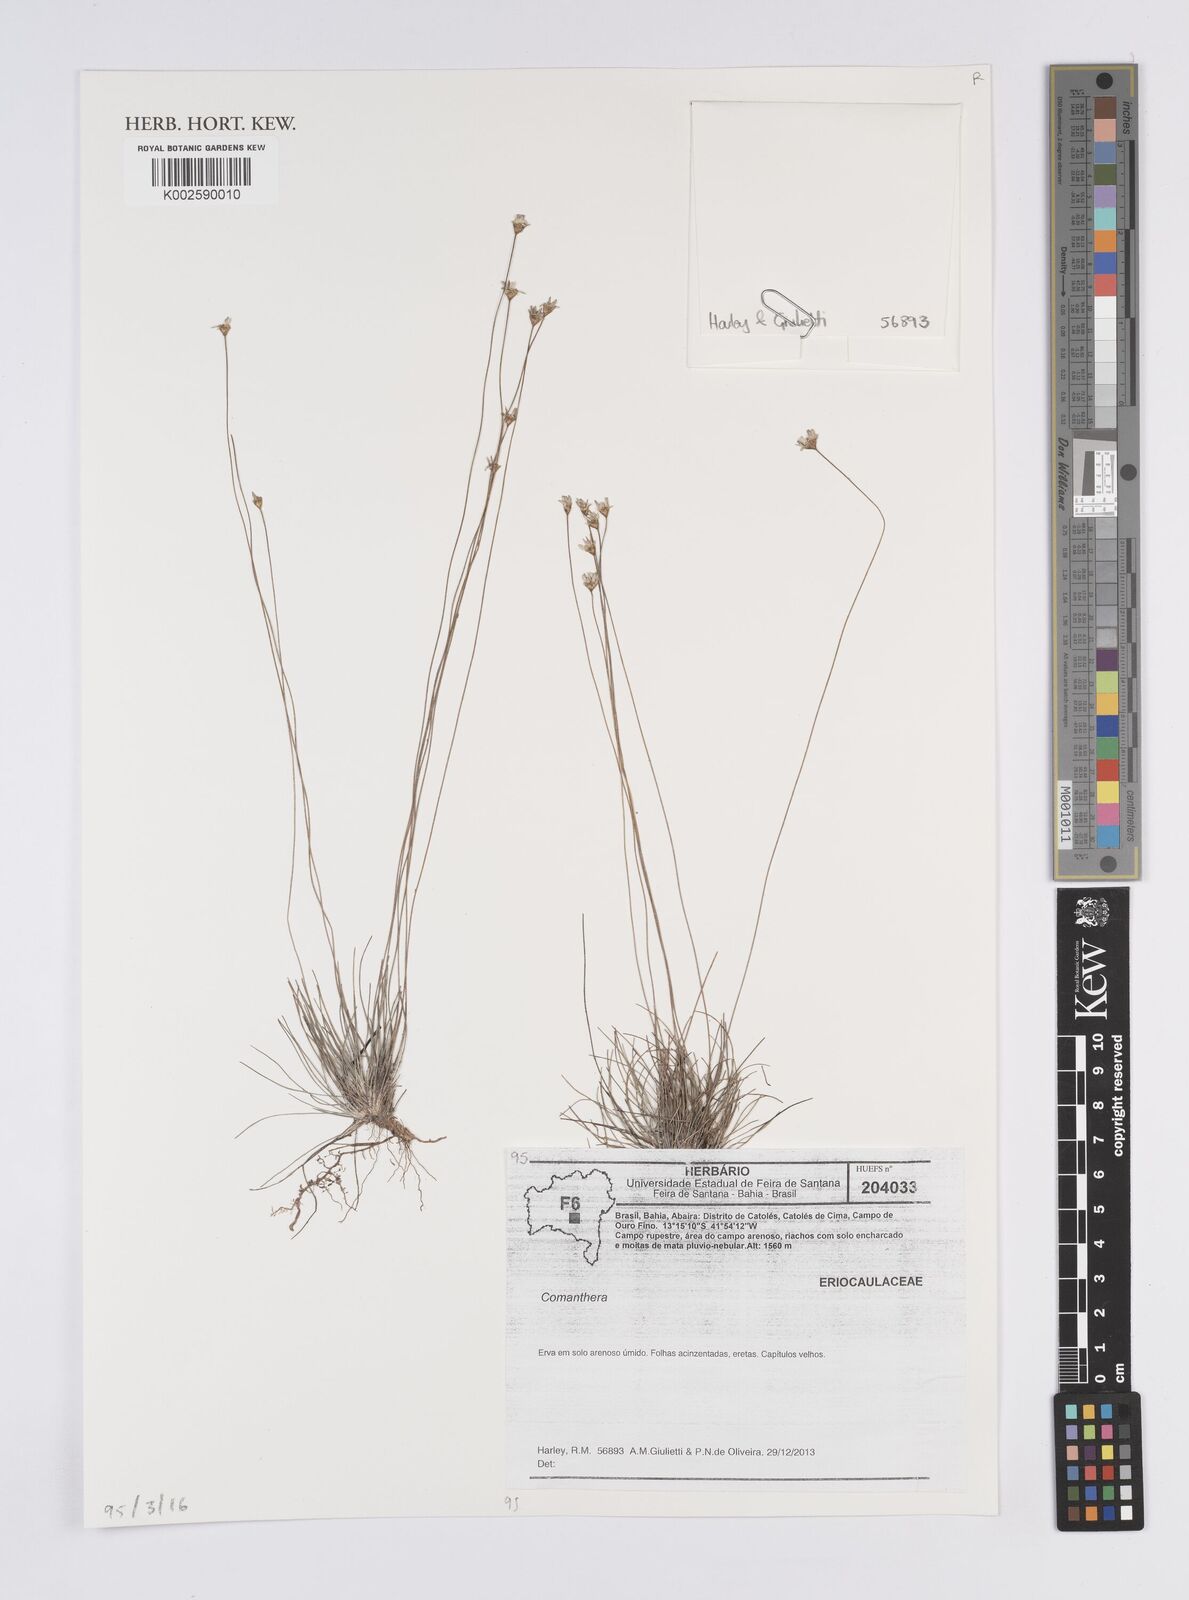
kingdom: Plantae
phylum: Tracheophyta
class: Liliopsida
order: Poales
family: Eriocaulaceae
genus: Comanthera
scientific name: Comanthera
